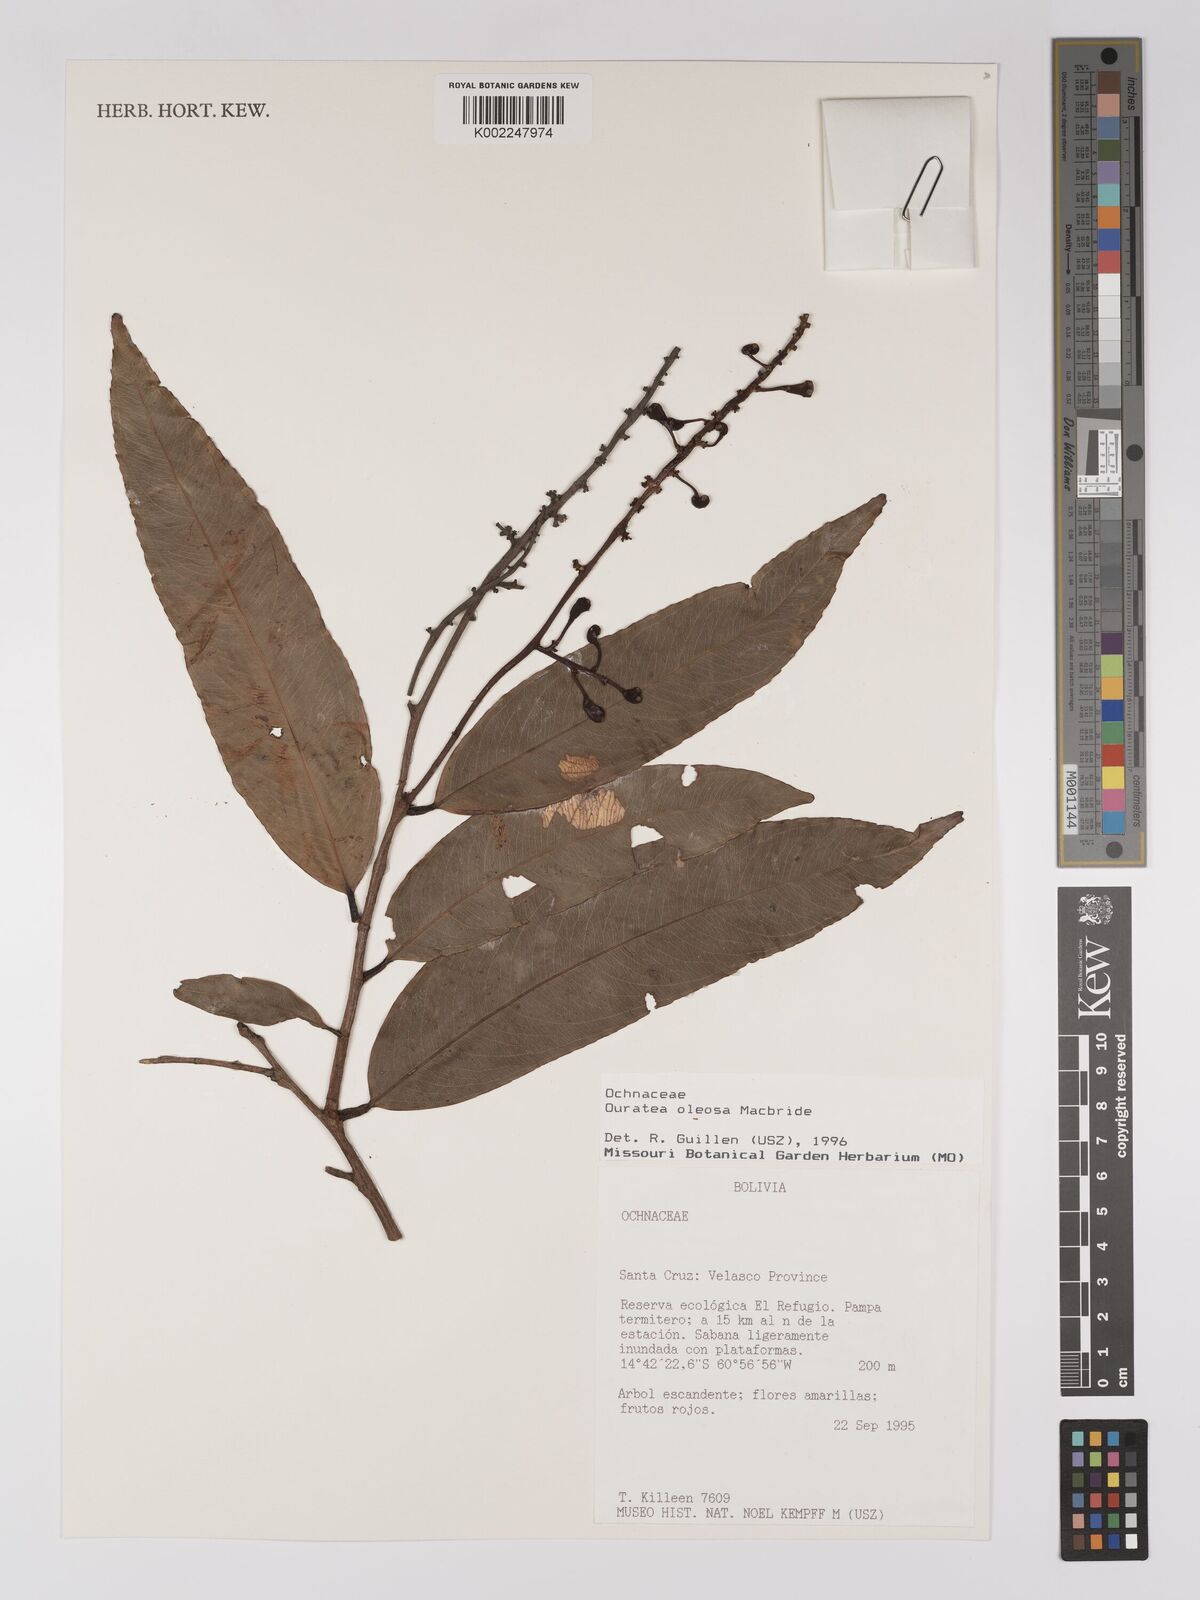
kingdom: Plantae
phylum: Tracheophyta
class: Magnoliopsida
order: Malpighiales
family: Ochnaceae
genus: Ouratea
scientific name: Ouratea oleosa
